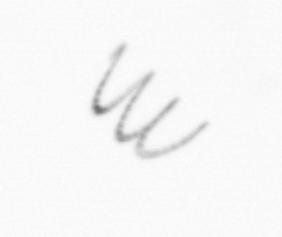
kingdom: Chromista
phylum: Ochrophyta
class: Bacillariophyceae
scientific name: Bacillariophyceae
